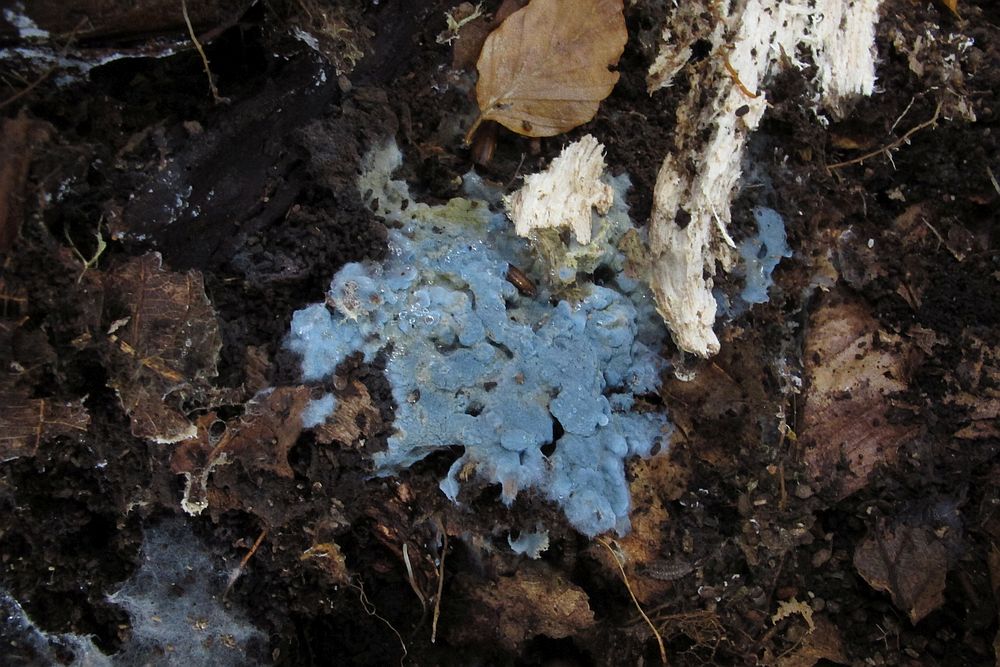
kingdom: Fungi
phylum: Basidiomycota
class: Agaricomycetes
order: Atheliales
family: Atheliaceae
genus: Byssocorticium
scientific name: Byssocorticium atrovirens
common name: blå førnehinde
